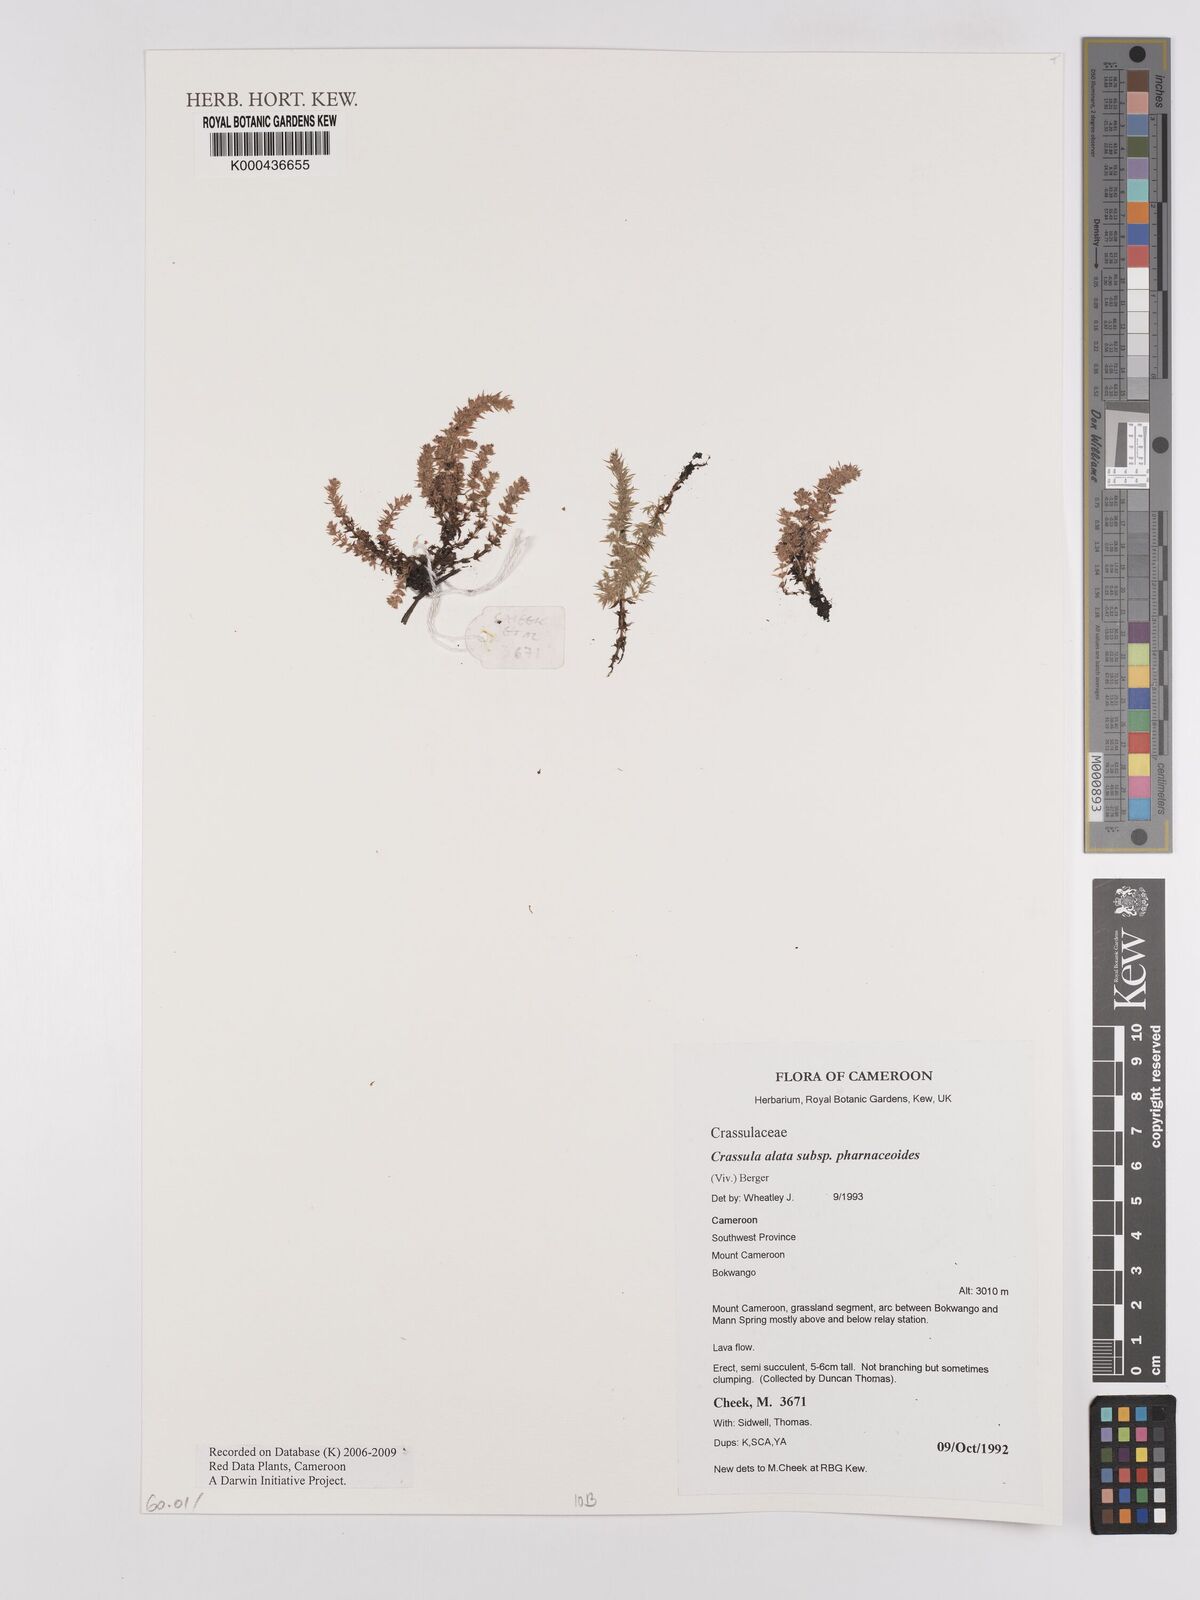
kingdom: Plantae
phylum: Tracheophyta
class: Magnoliopsida
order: Saxifragales
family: Crassulaceae
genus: Crassula
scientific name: Crassula alata
